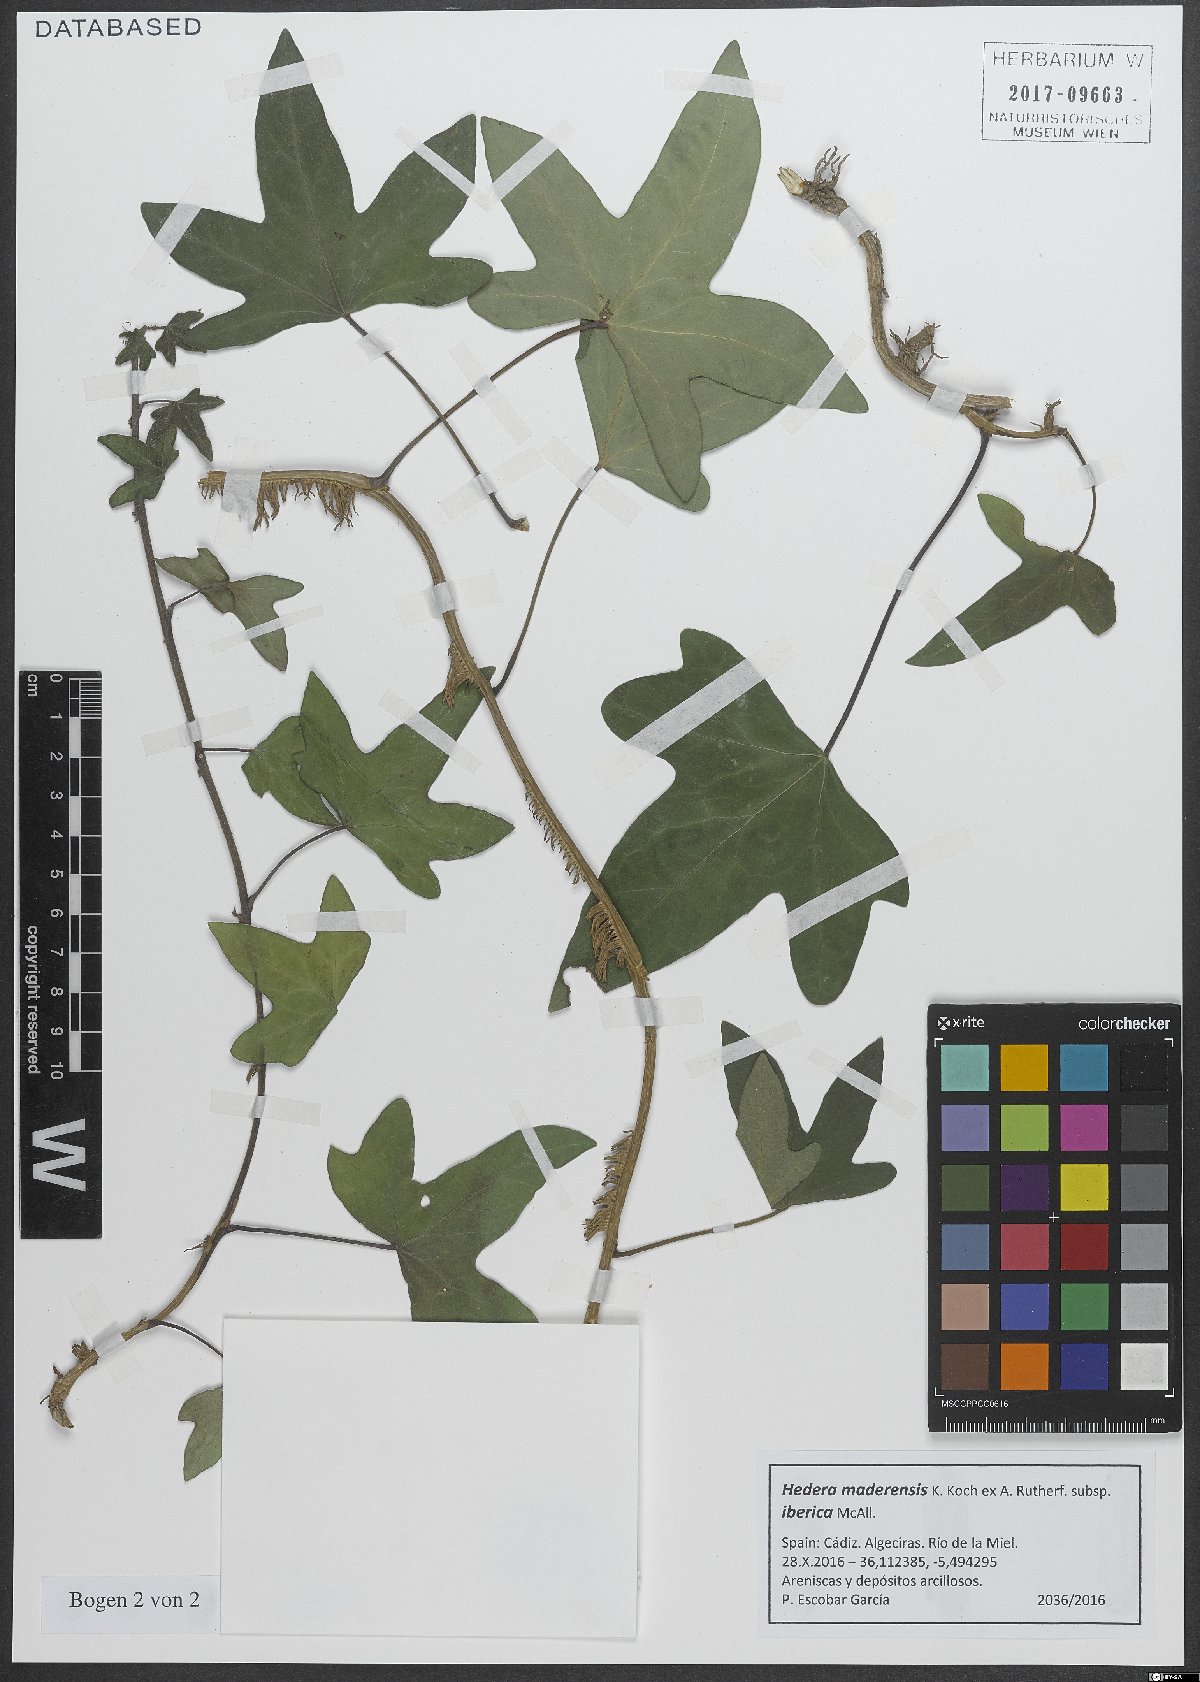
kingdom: Plantae
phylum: Tracheophyta
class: Magnoliopsida
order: Apiales
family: Araliaceae
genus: Hedera
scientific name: Hedera iberica
